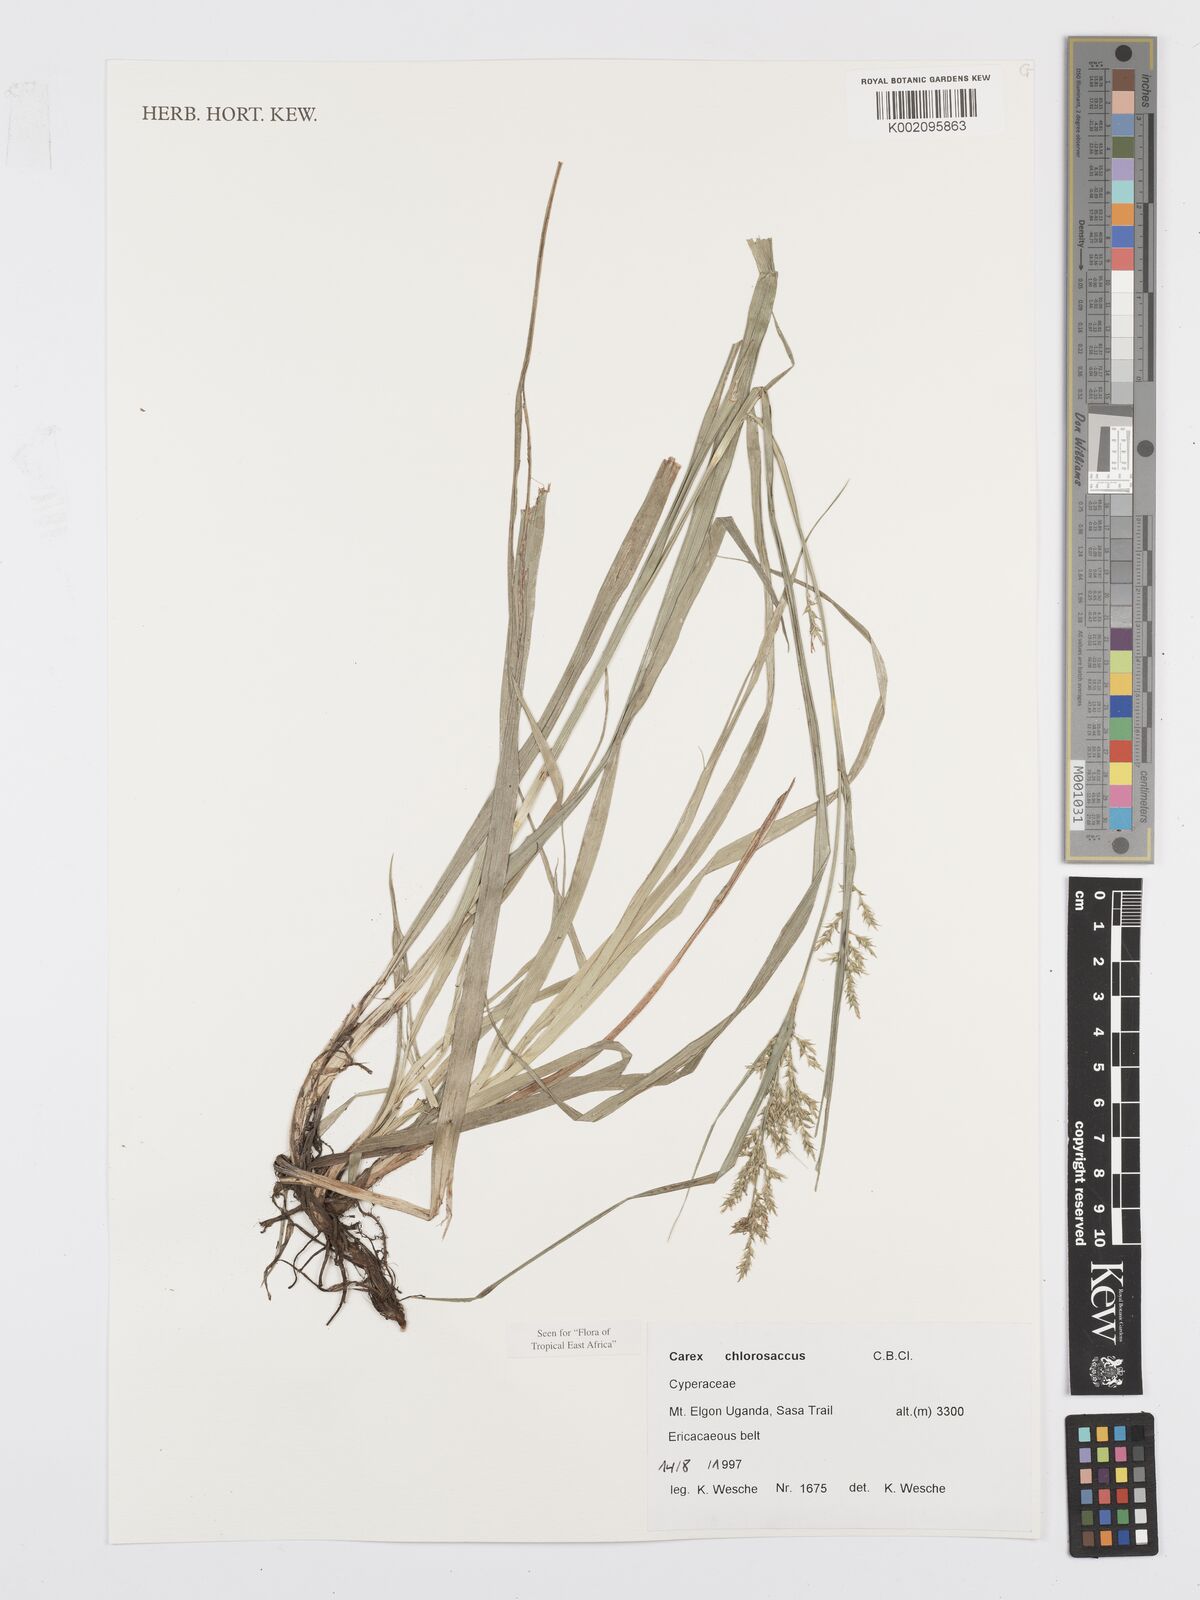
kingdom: Plantae
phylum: Tracheophyta
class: Liliopsida
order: Poales
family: Cyperaceae
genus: Carex
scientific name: Carex chlorosaccus
